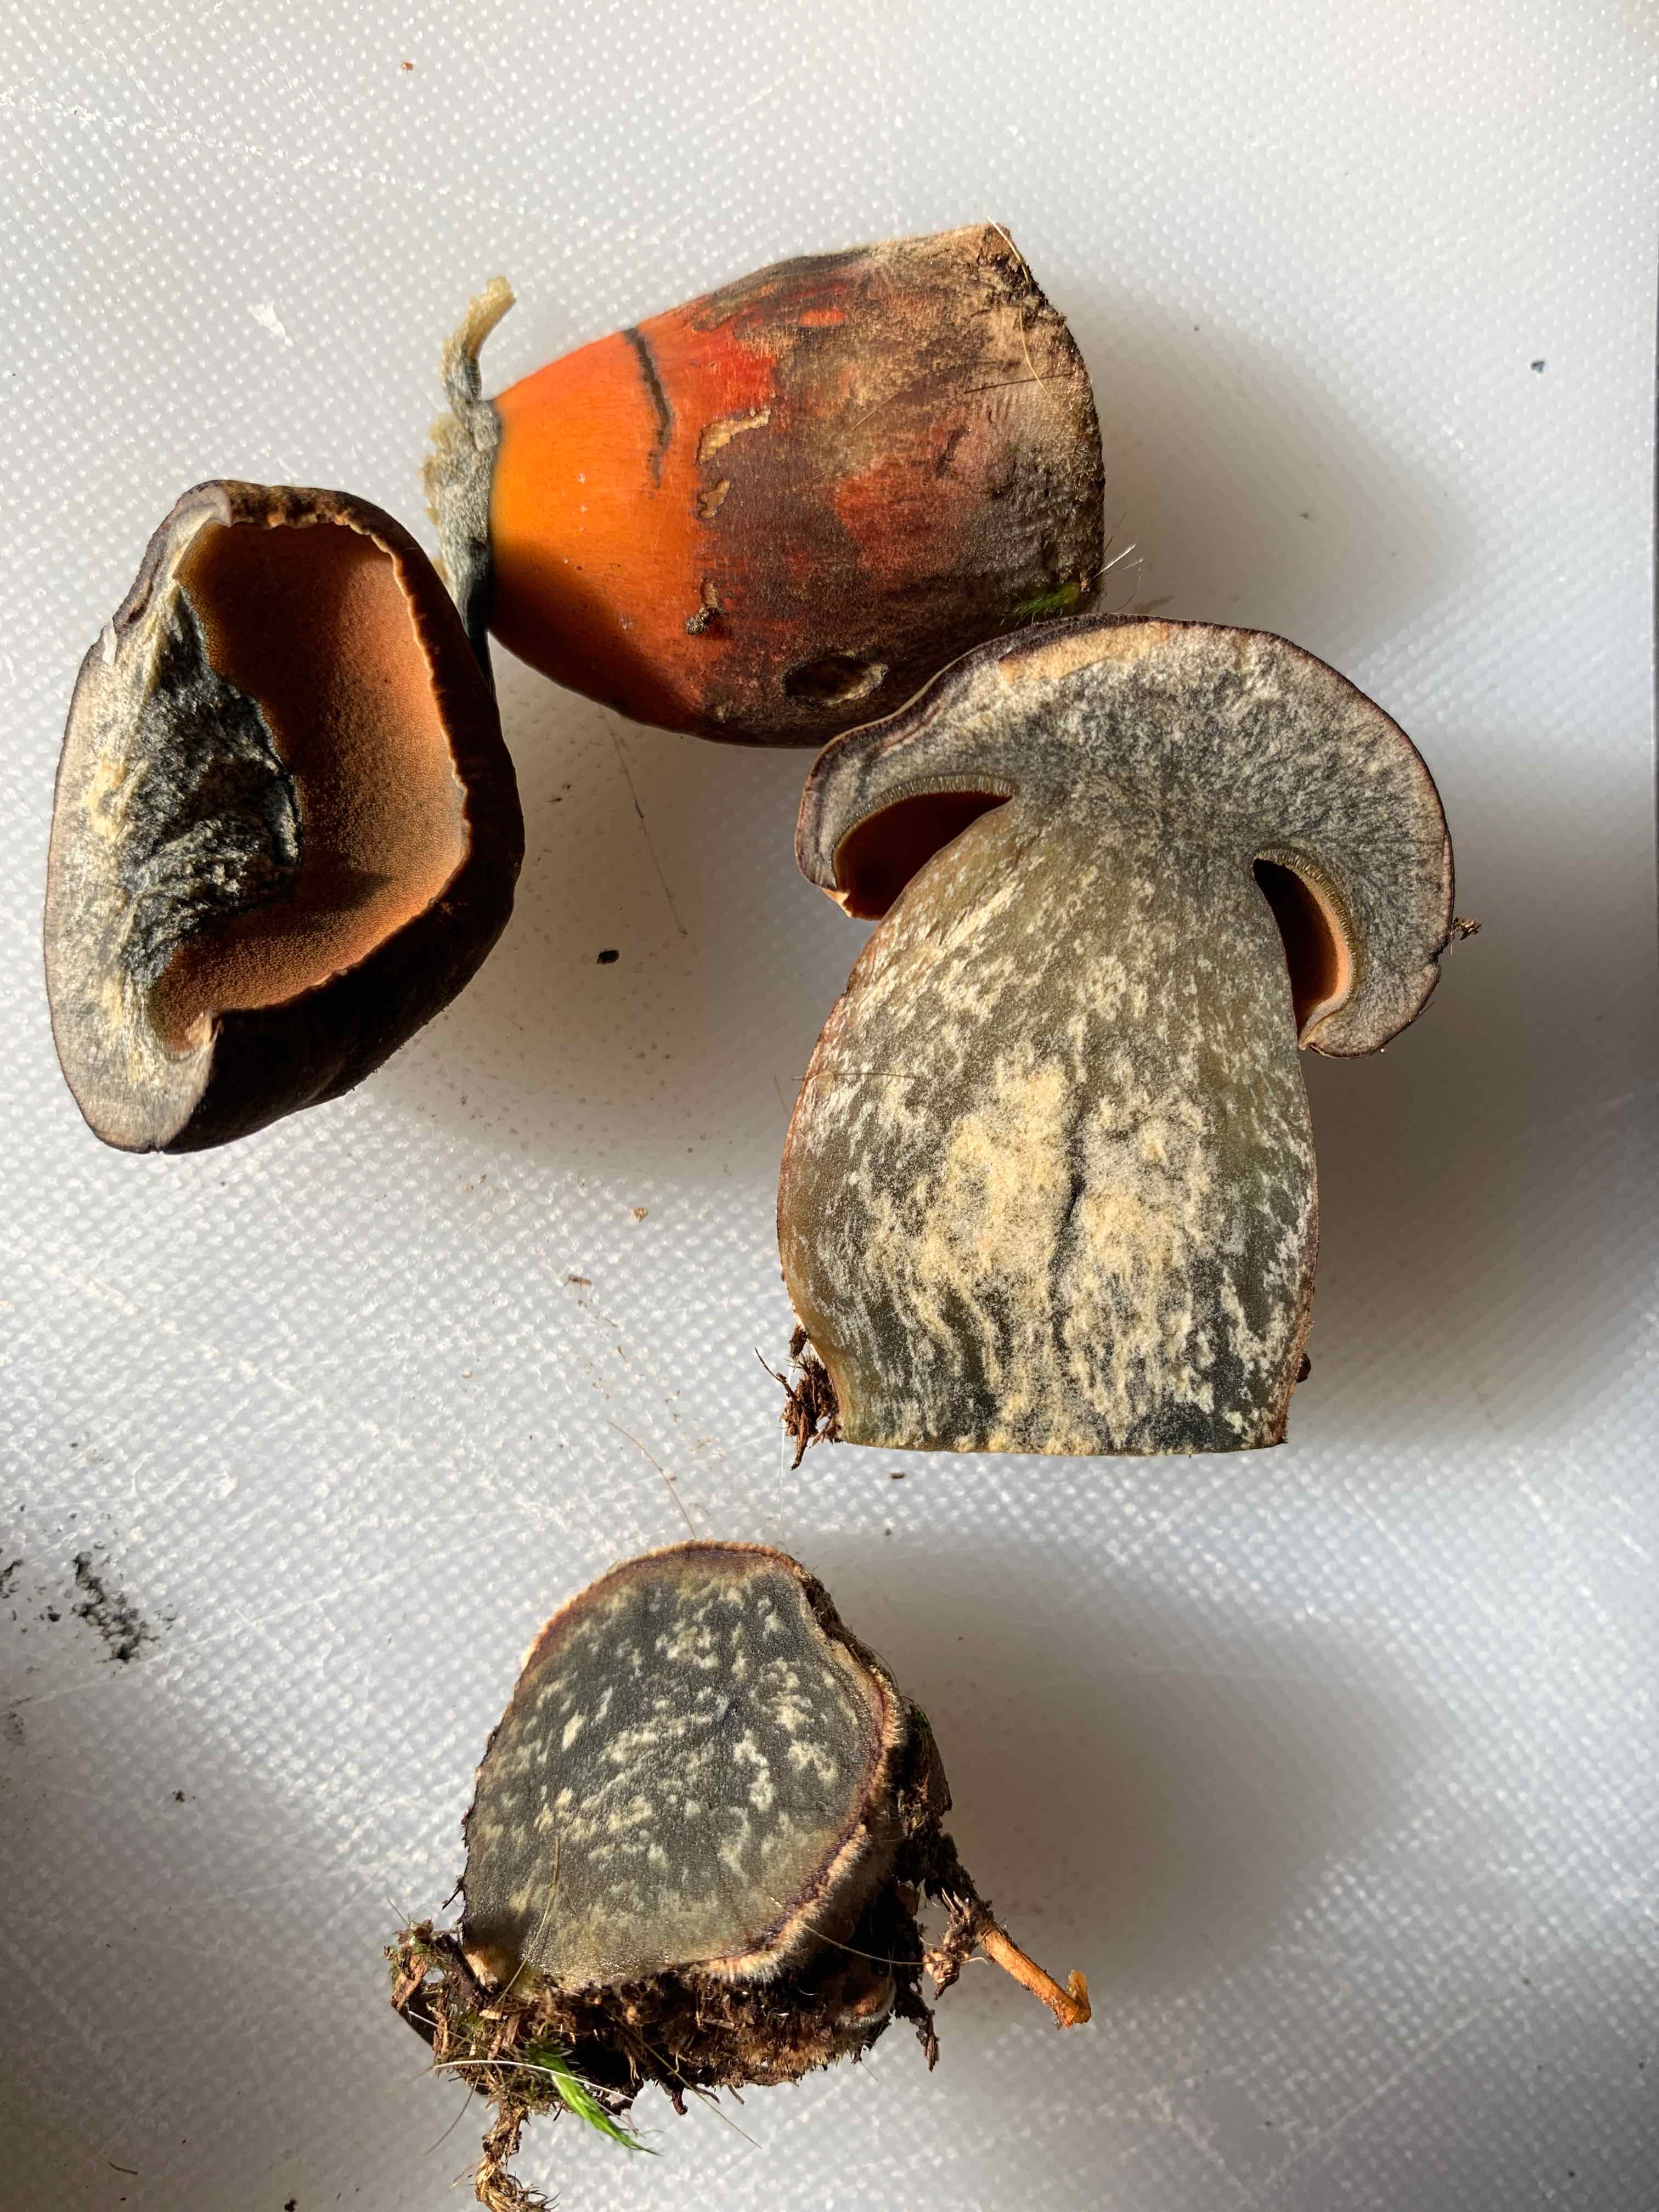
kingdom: Fungi
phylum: Basidiomycota
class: Agaricomycetes
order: Boletales
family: Boletaceae
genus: Neoboletus
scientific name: Neoboletus erythropus
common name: punktstokket indigorørhat
